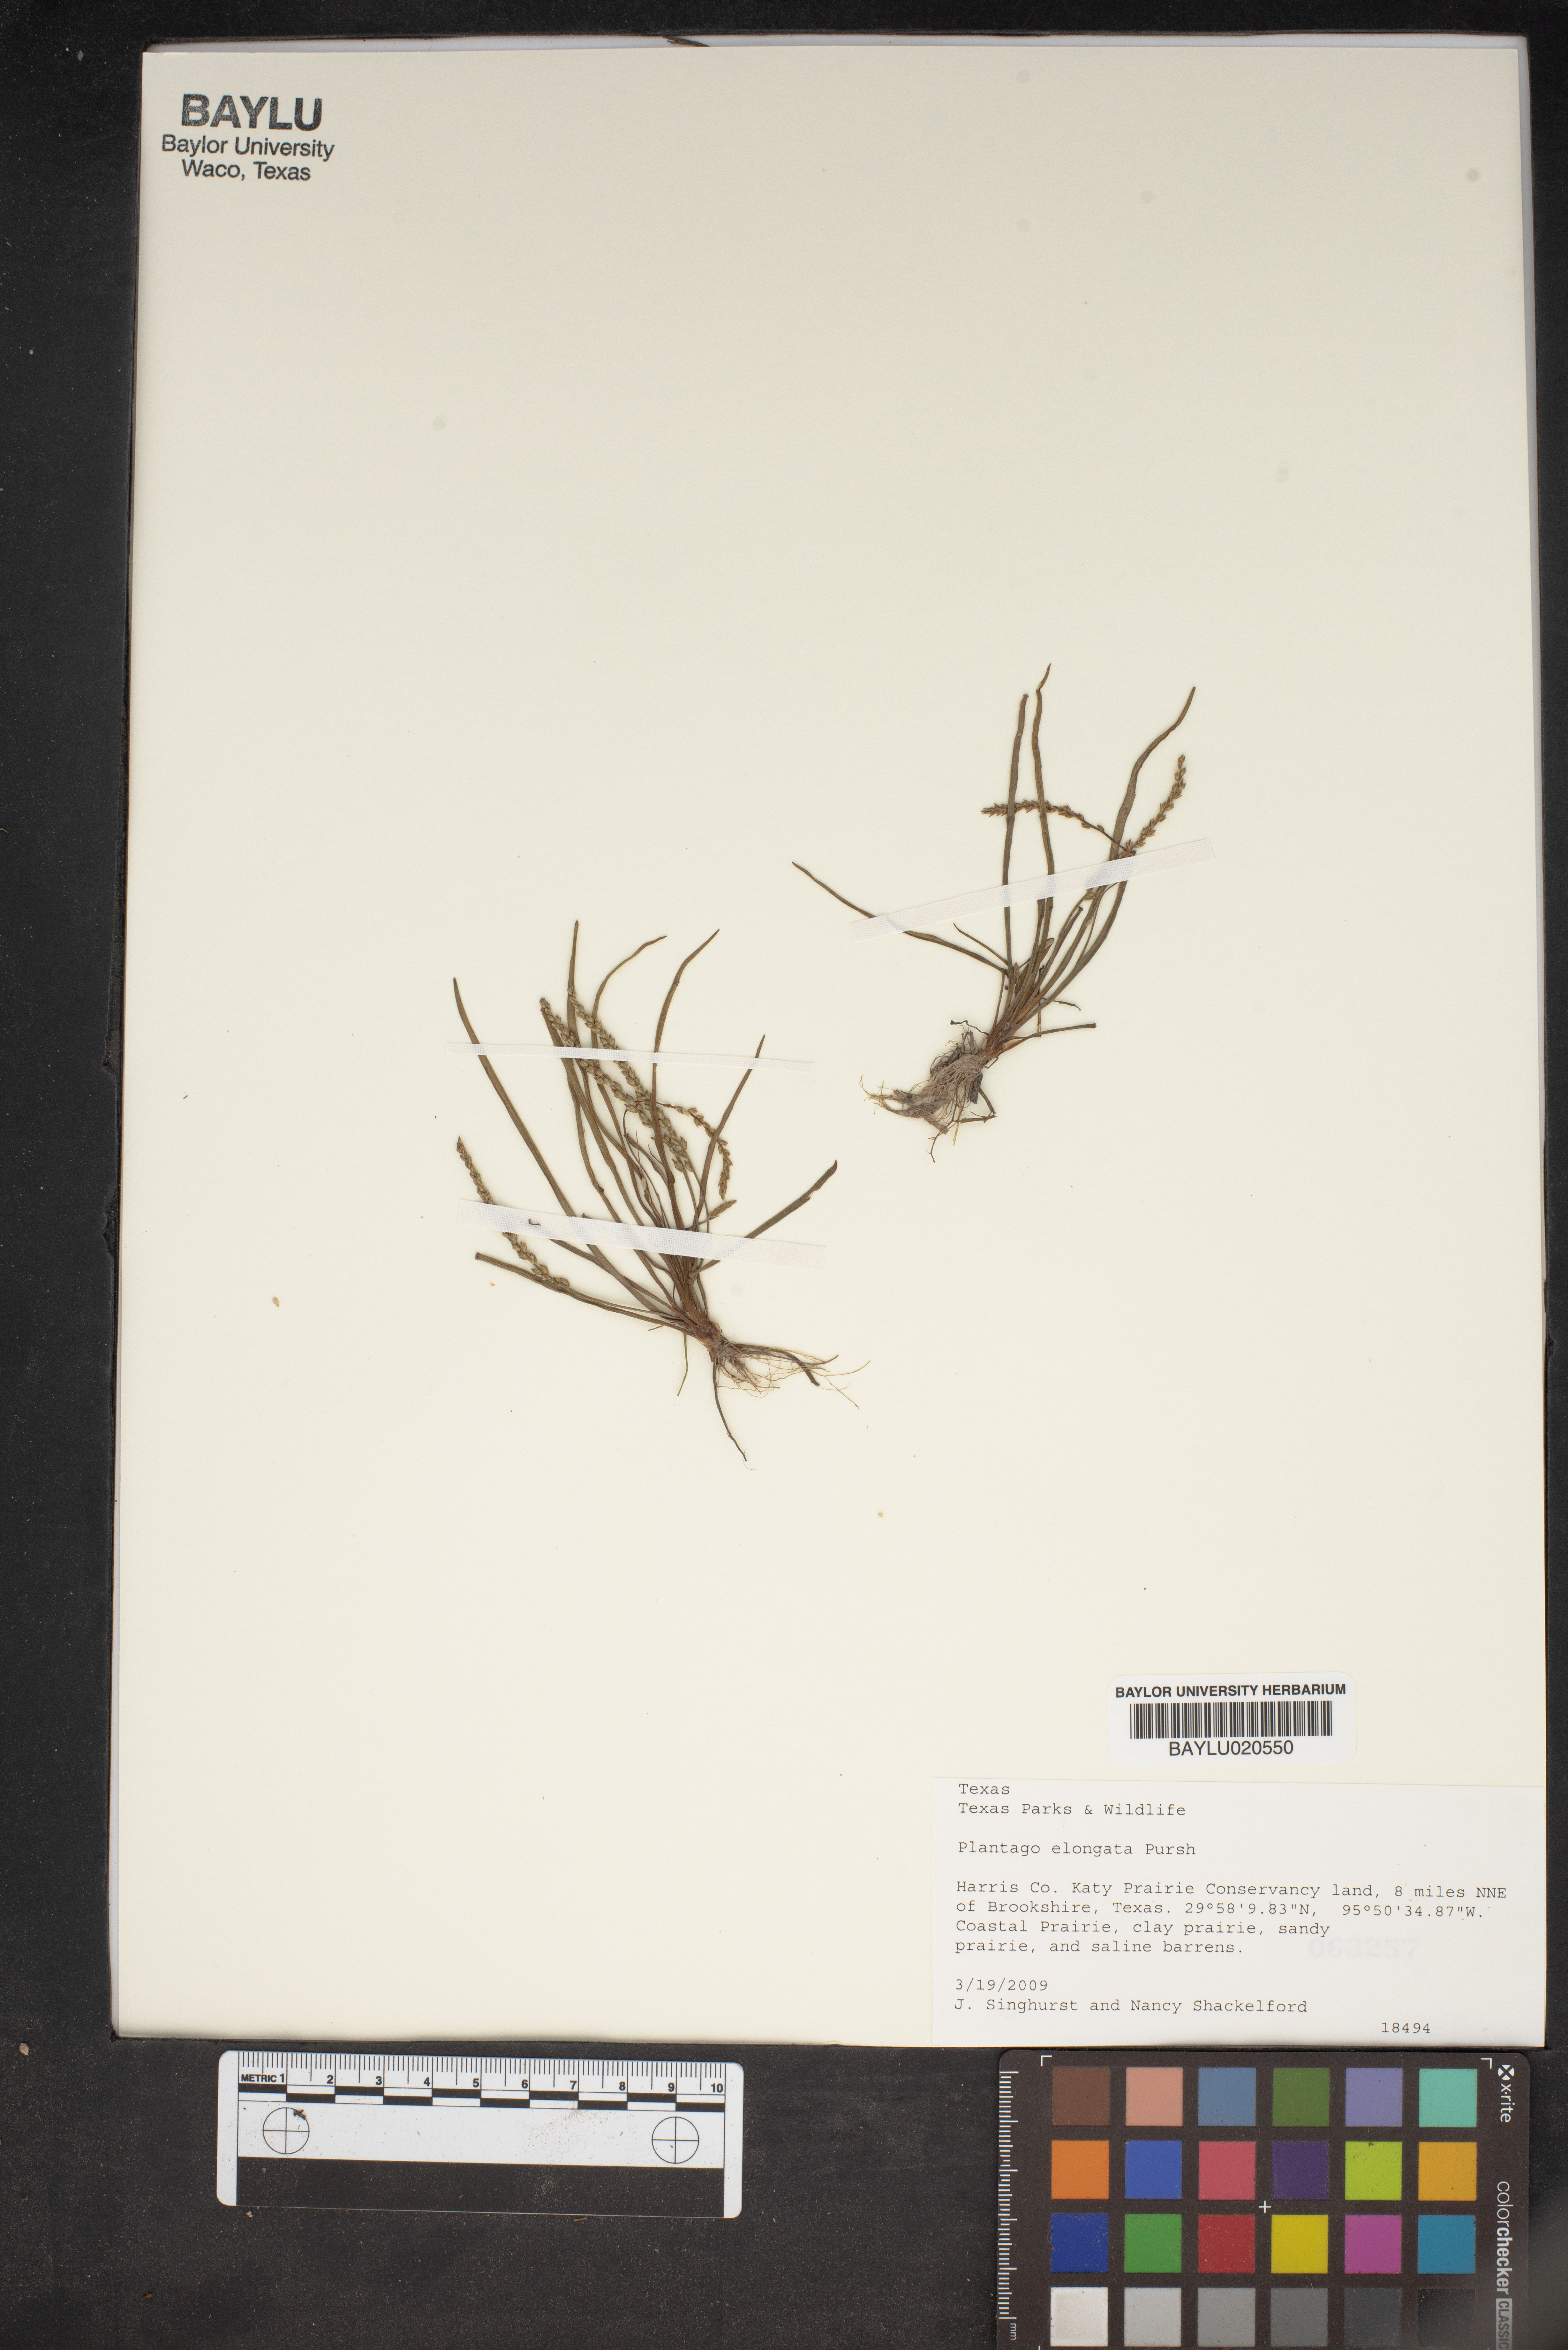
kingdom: Plantae
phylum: Tracheophyta
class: Magnoliopsida
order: Lamiales
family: Plantaginaceae
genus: Plantago
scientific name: Plantago elongata
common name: Linear-leaved plantain
